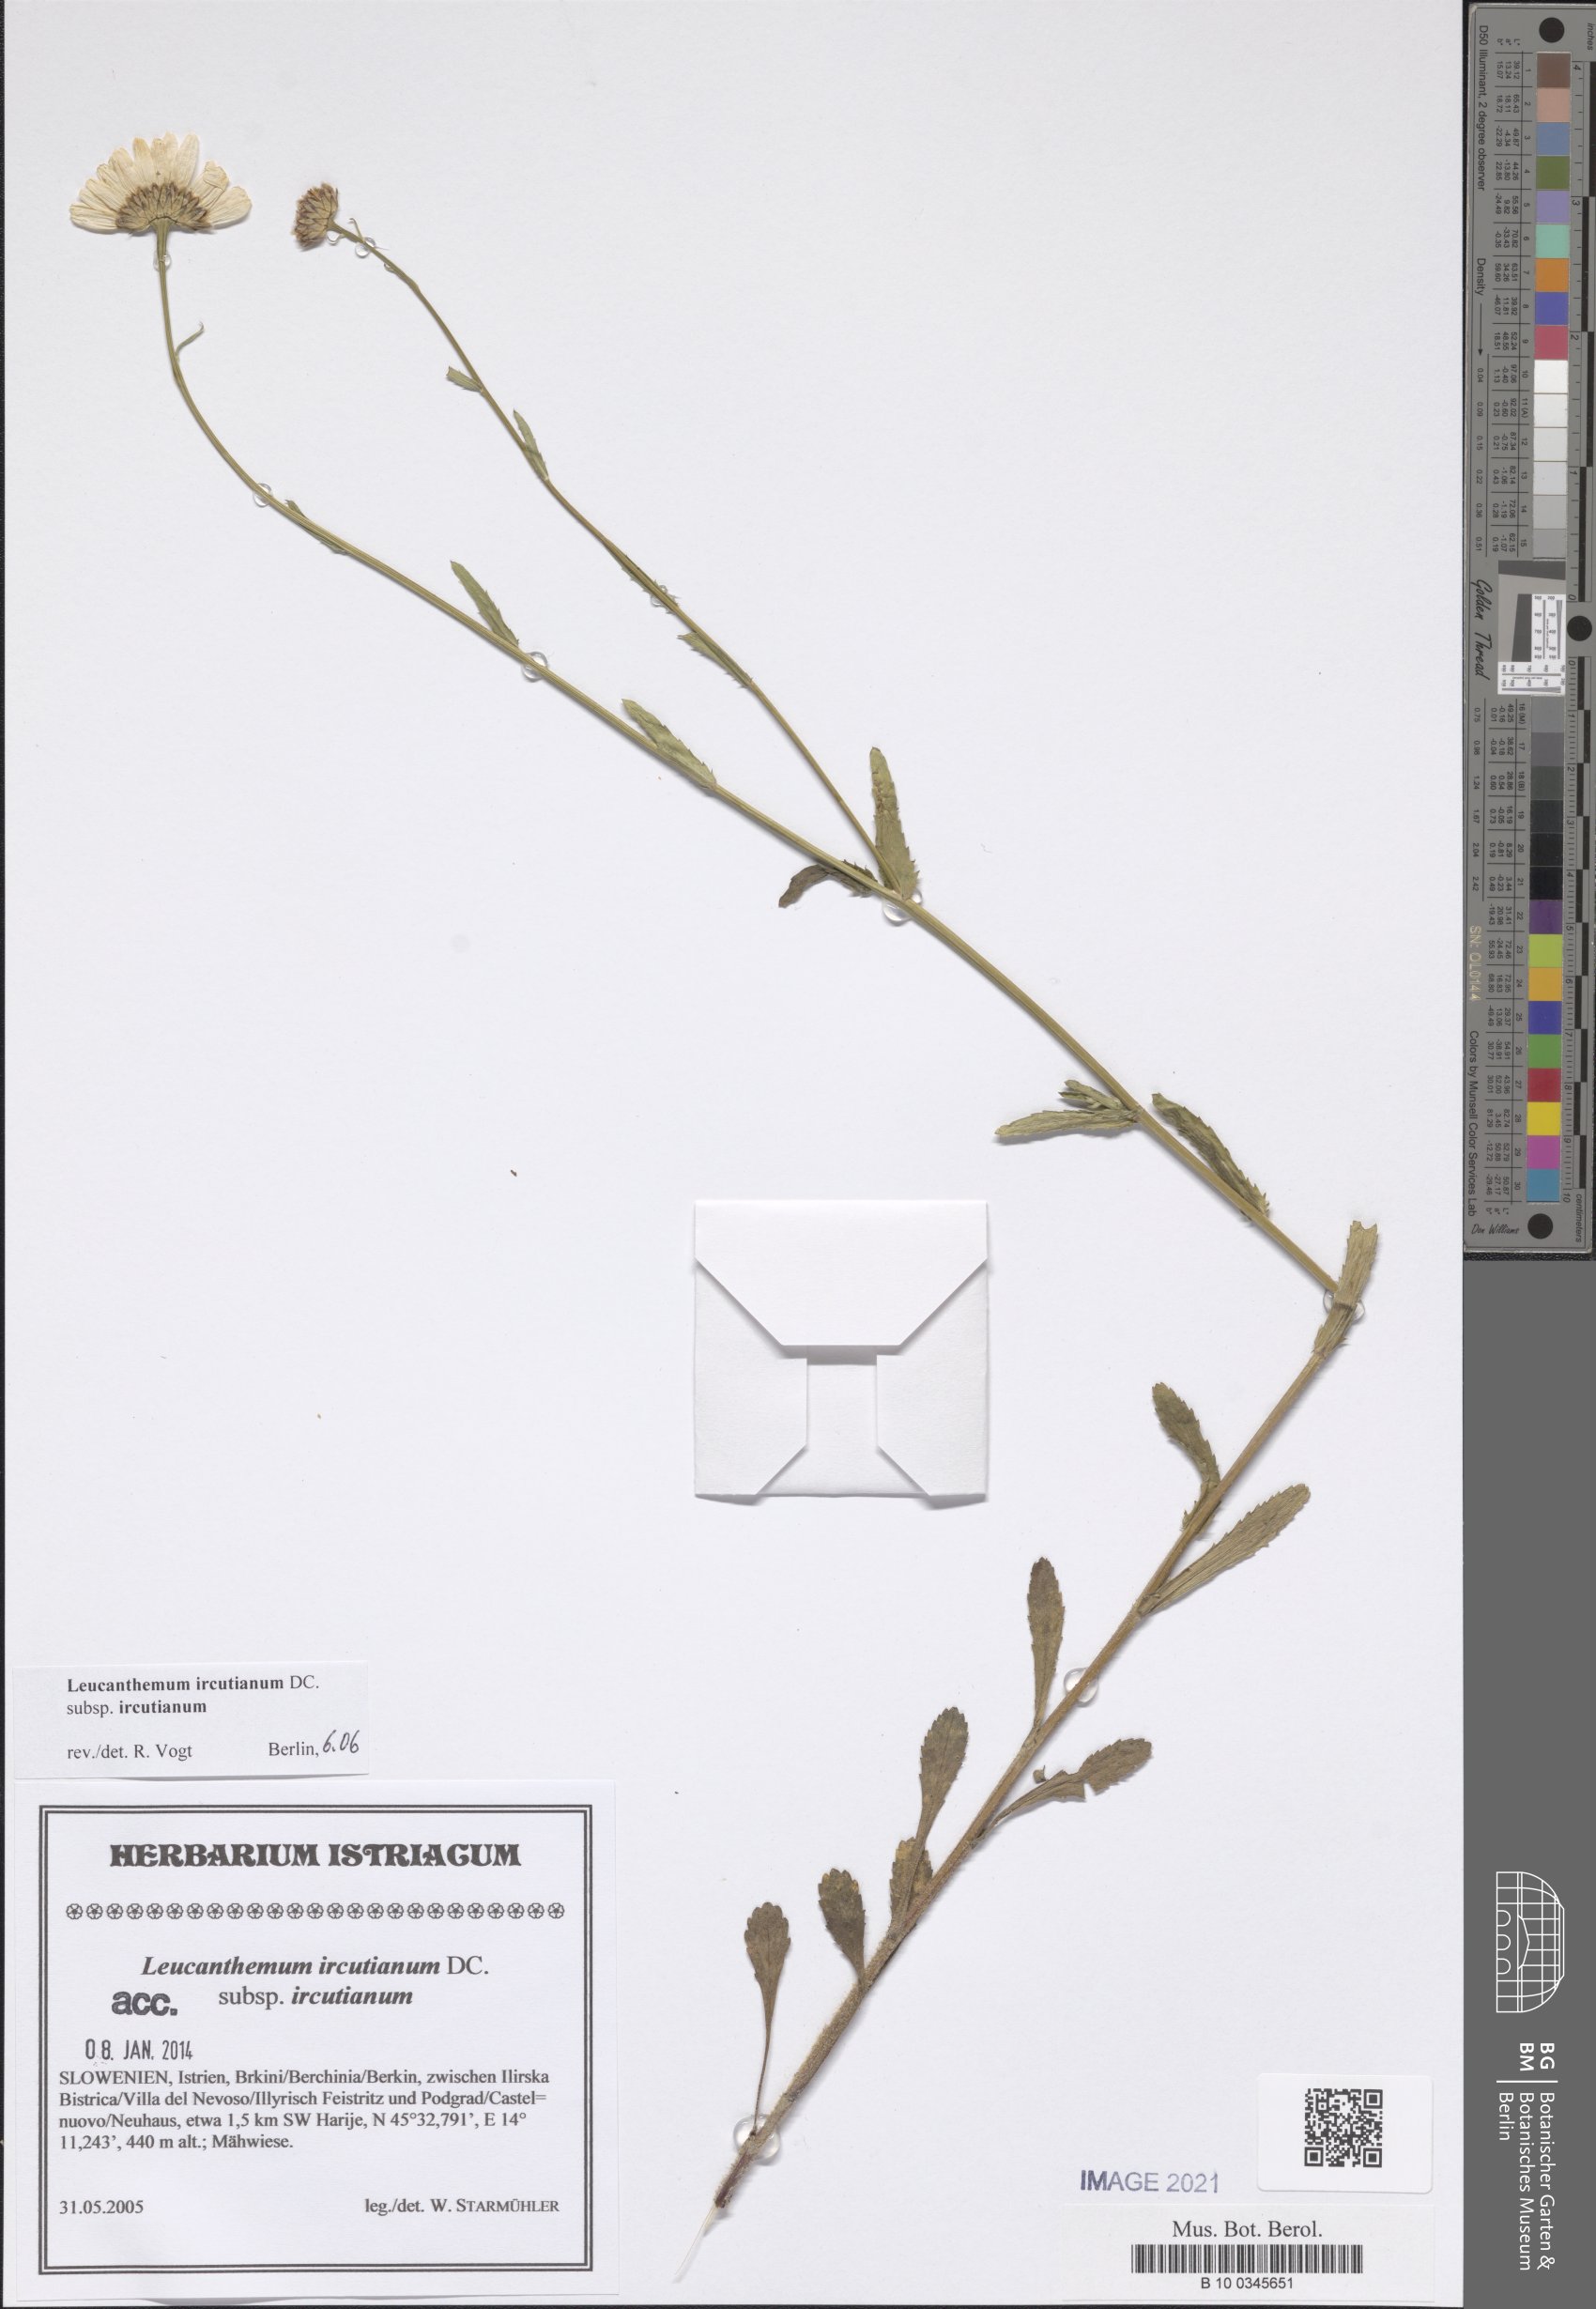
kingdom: Plantae
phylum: Tracheophyta
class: Magnoliopsida
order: Asterales
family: Asteraceae
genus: Leucanthemum
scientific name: Leucanthemum ircutianum
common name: Daisy
